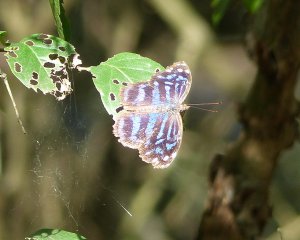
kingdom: Animalia
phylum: Arthropoda
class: Insecta
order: Lepidoptera
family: Nymphalidae
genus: Myscelia
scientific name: Myscelia ethusa
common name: Mexican Bluewing
